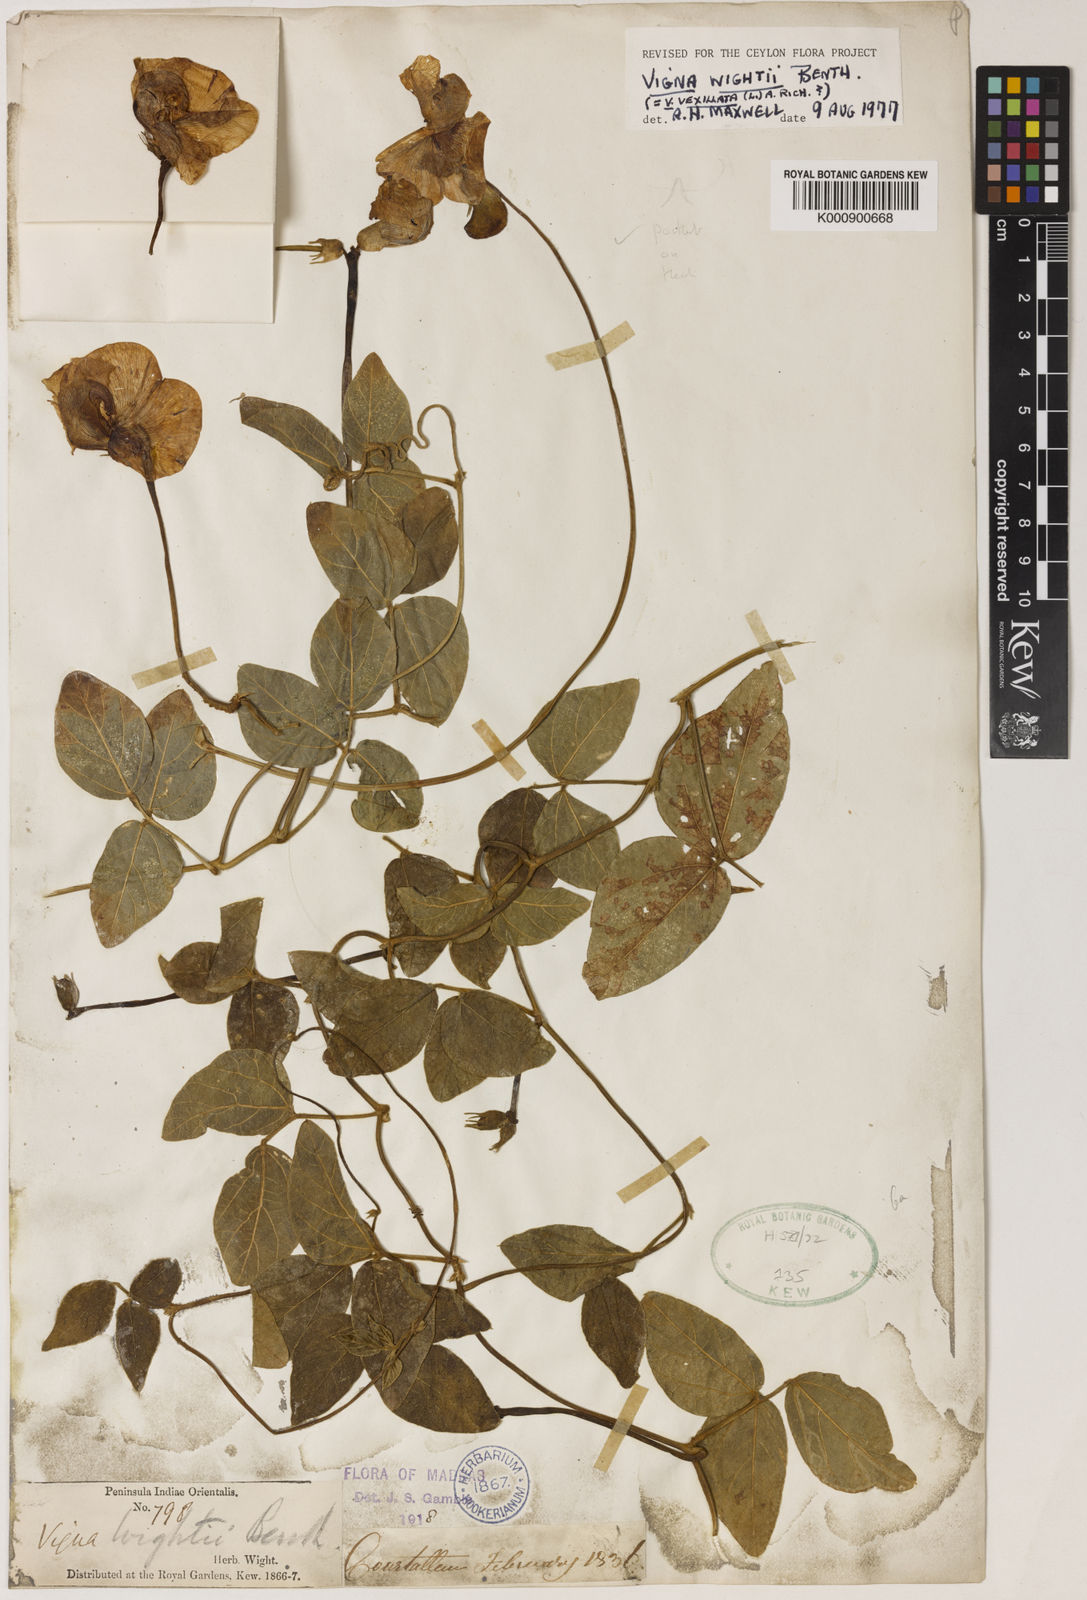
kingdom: Plantae
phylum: Tracheophyta
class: Magnoliopsida
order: Fabales
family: Fabaceae
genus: Vigna
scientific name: Vigna vexillata
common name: Zombi pea
